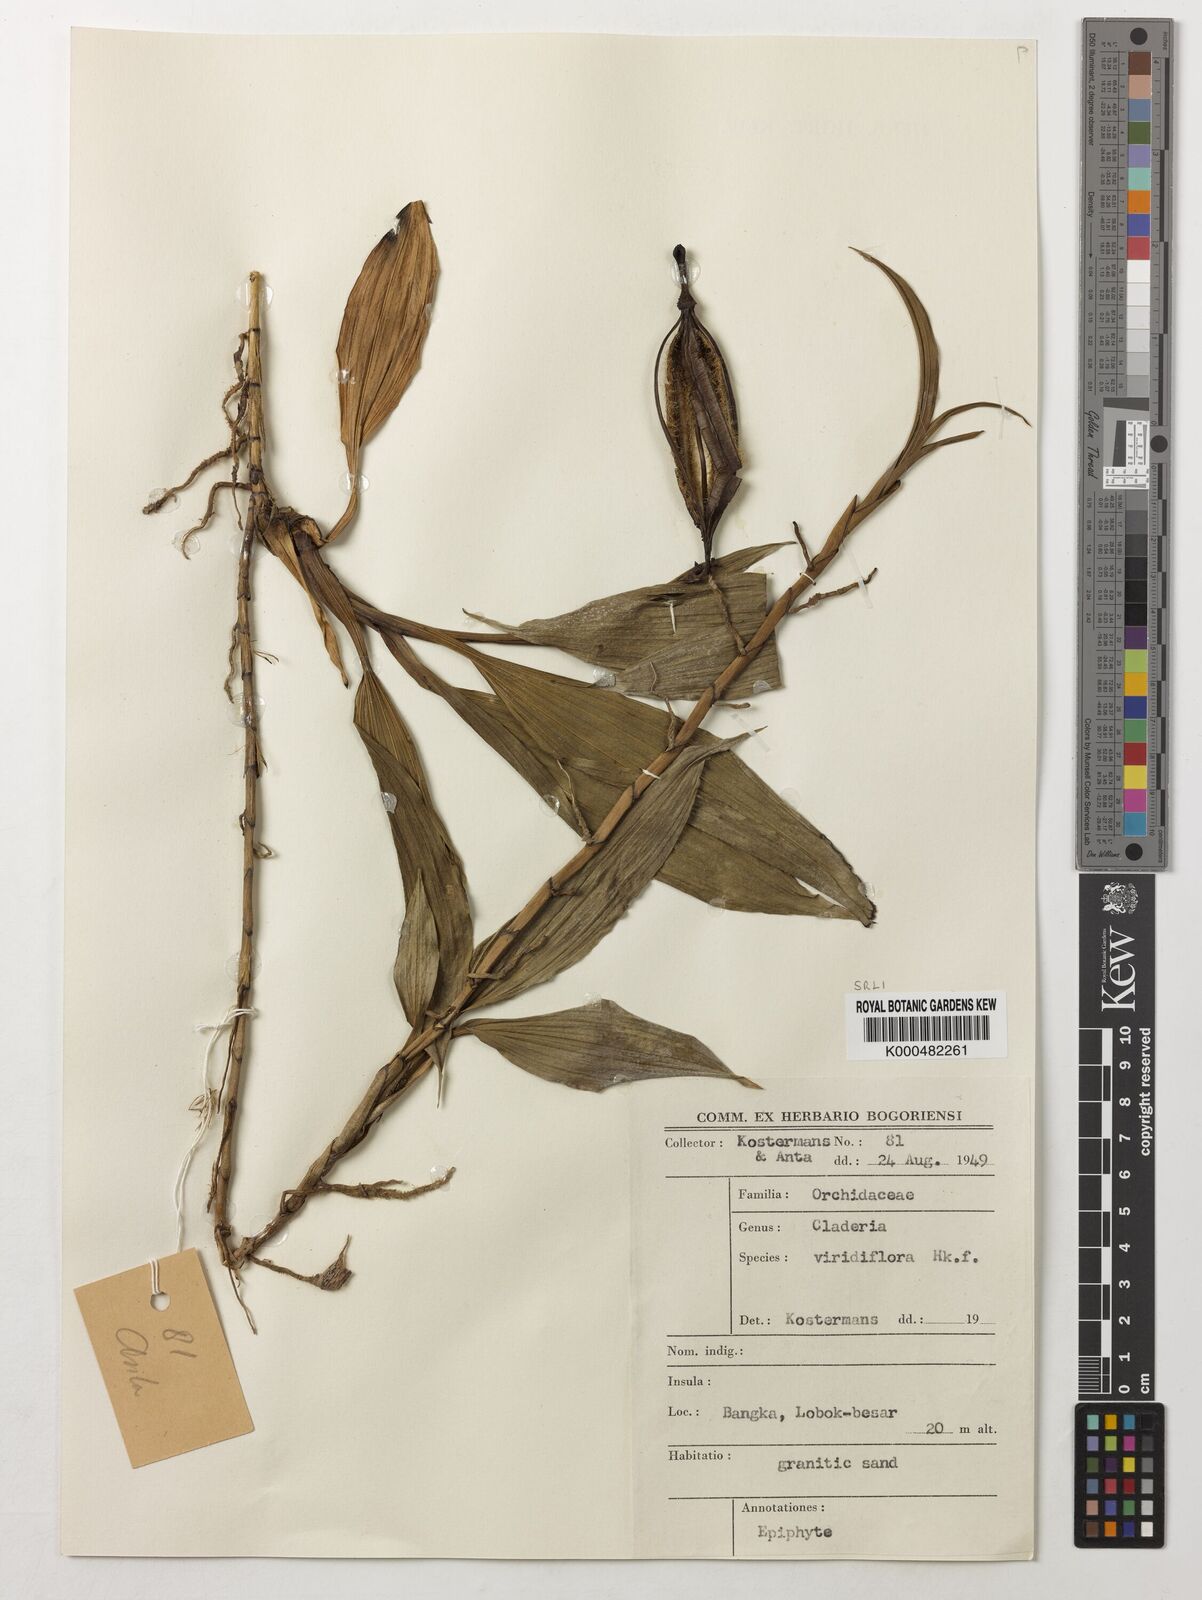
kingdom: Plantae
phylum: Tracheophyta
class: Liliopsida
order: Asparagales
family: Orchidaceae
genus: Claderia
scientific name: Claderia
